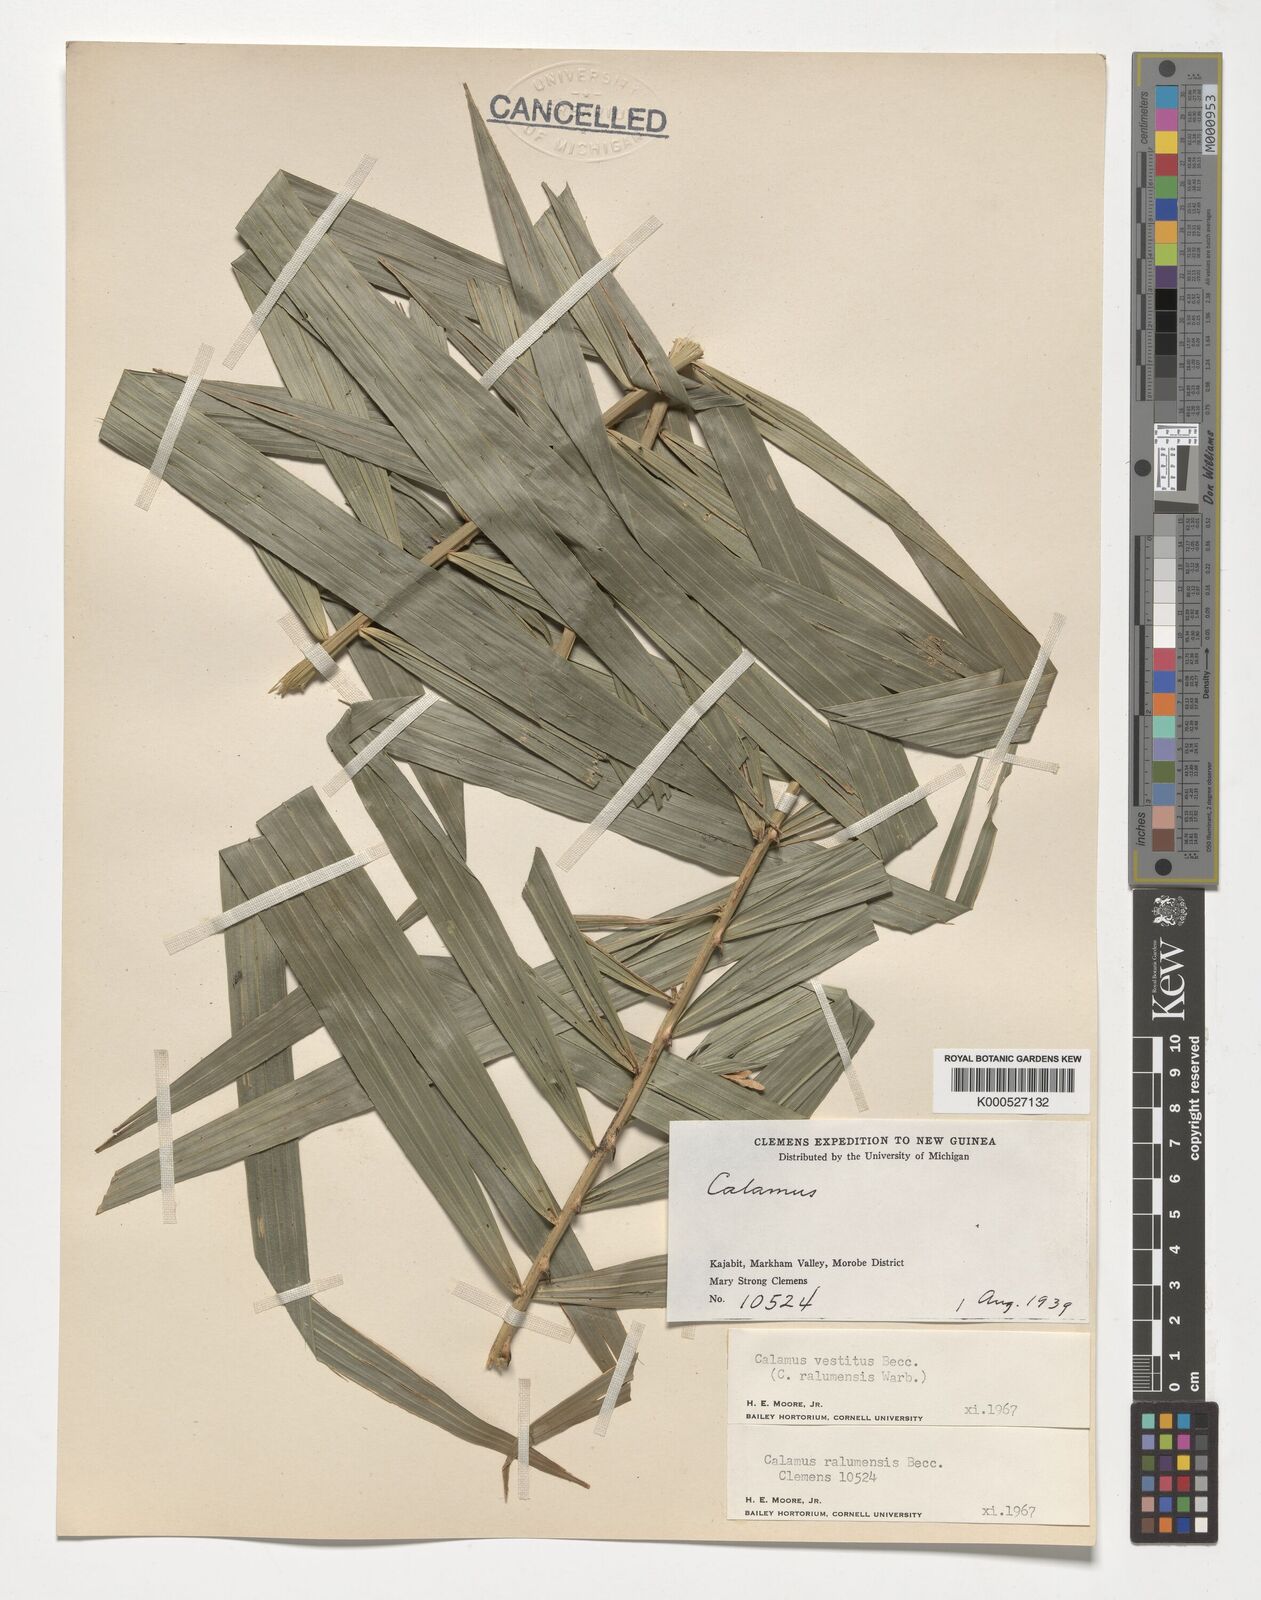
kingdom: Plantae
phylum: Tracheophyta
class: Liliopsida
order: Arecales
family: Arecaceae
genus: Calamus
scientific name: Calamus longipinna
